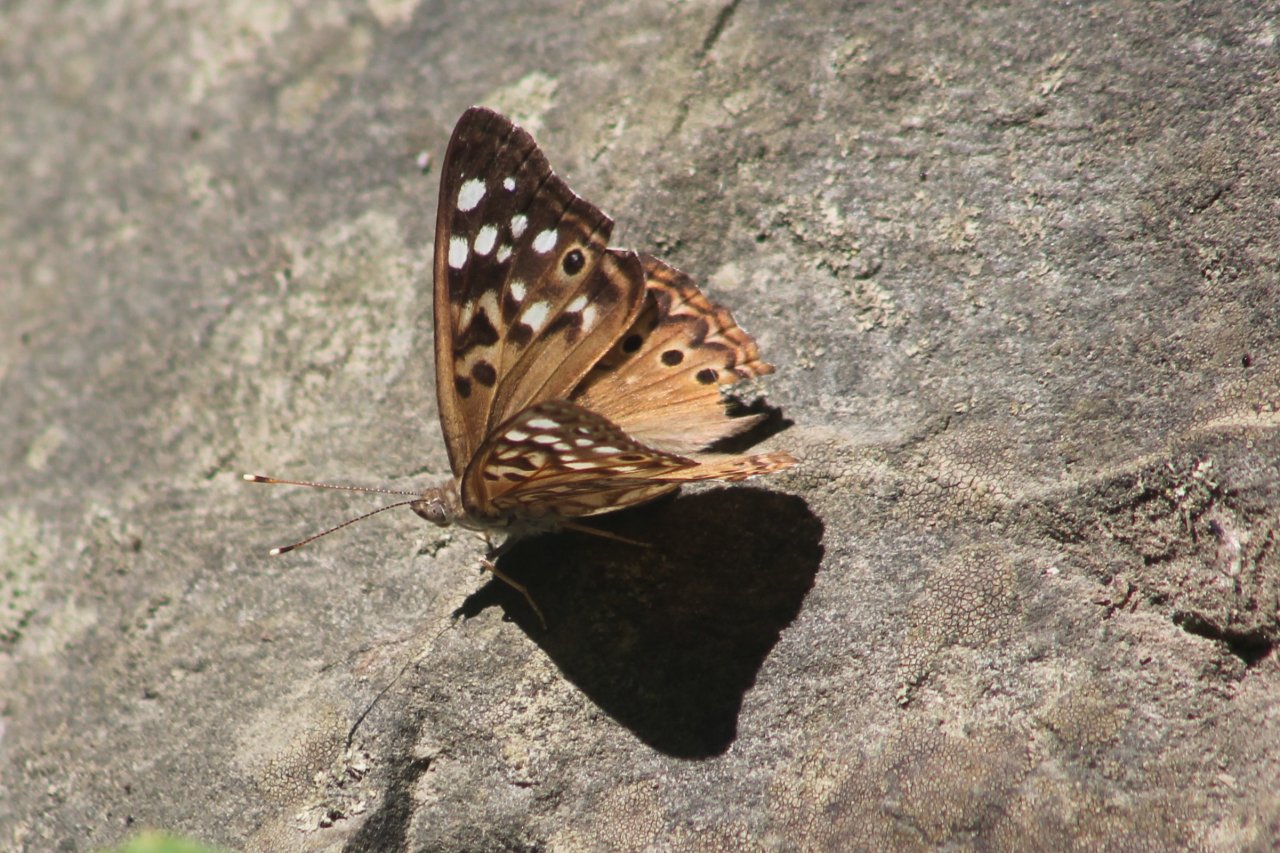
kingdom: Animalia
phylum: Arthropoda
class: Insecta
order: Lepidoptera
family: Nymphalidae
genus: Asterocampa
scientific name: Asterocampa celtis
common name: Hackberry Emperor
